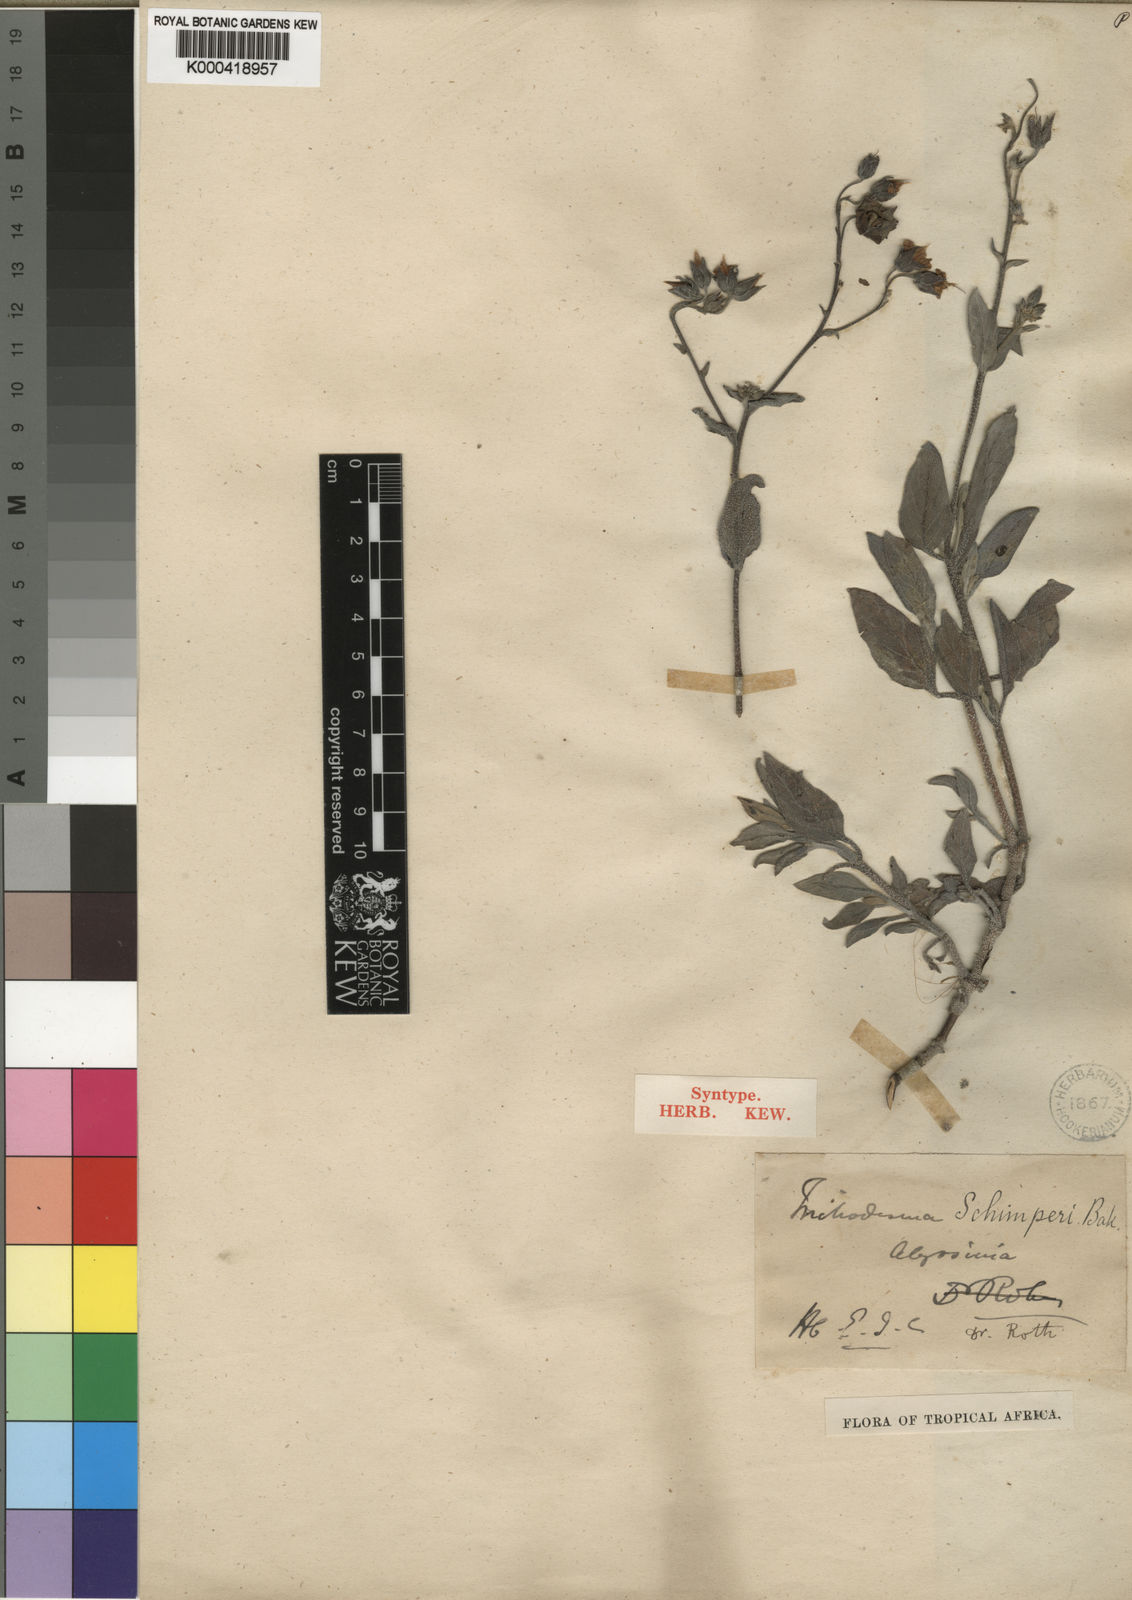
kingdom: Plantae
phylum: Tracheophyta
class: Magnoliopsida
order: Boraginales
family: Boraginaceae
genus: Trichodesma
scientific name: Trichodesma
